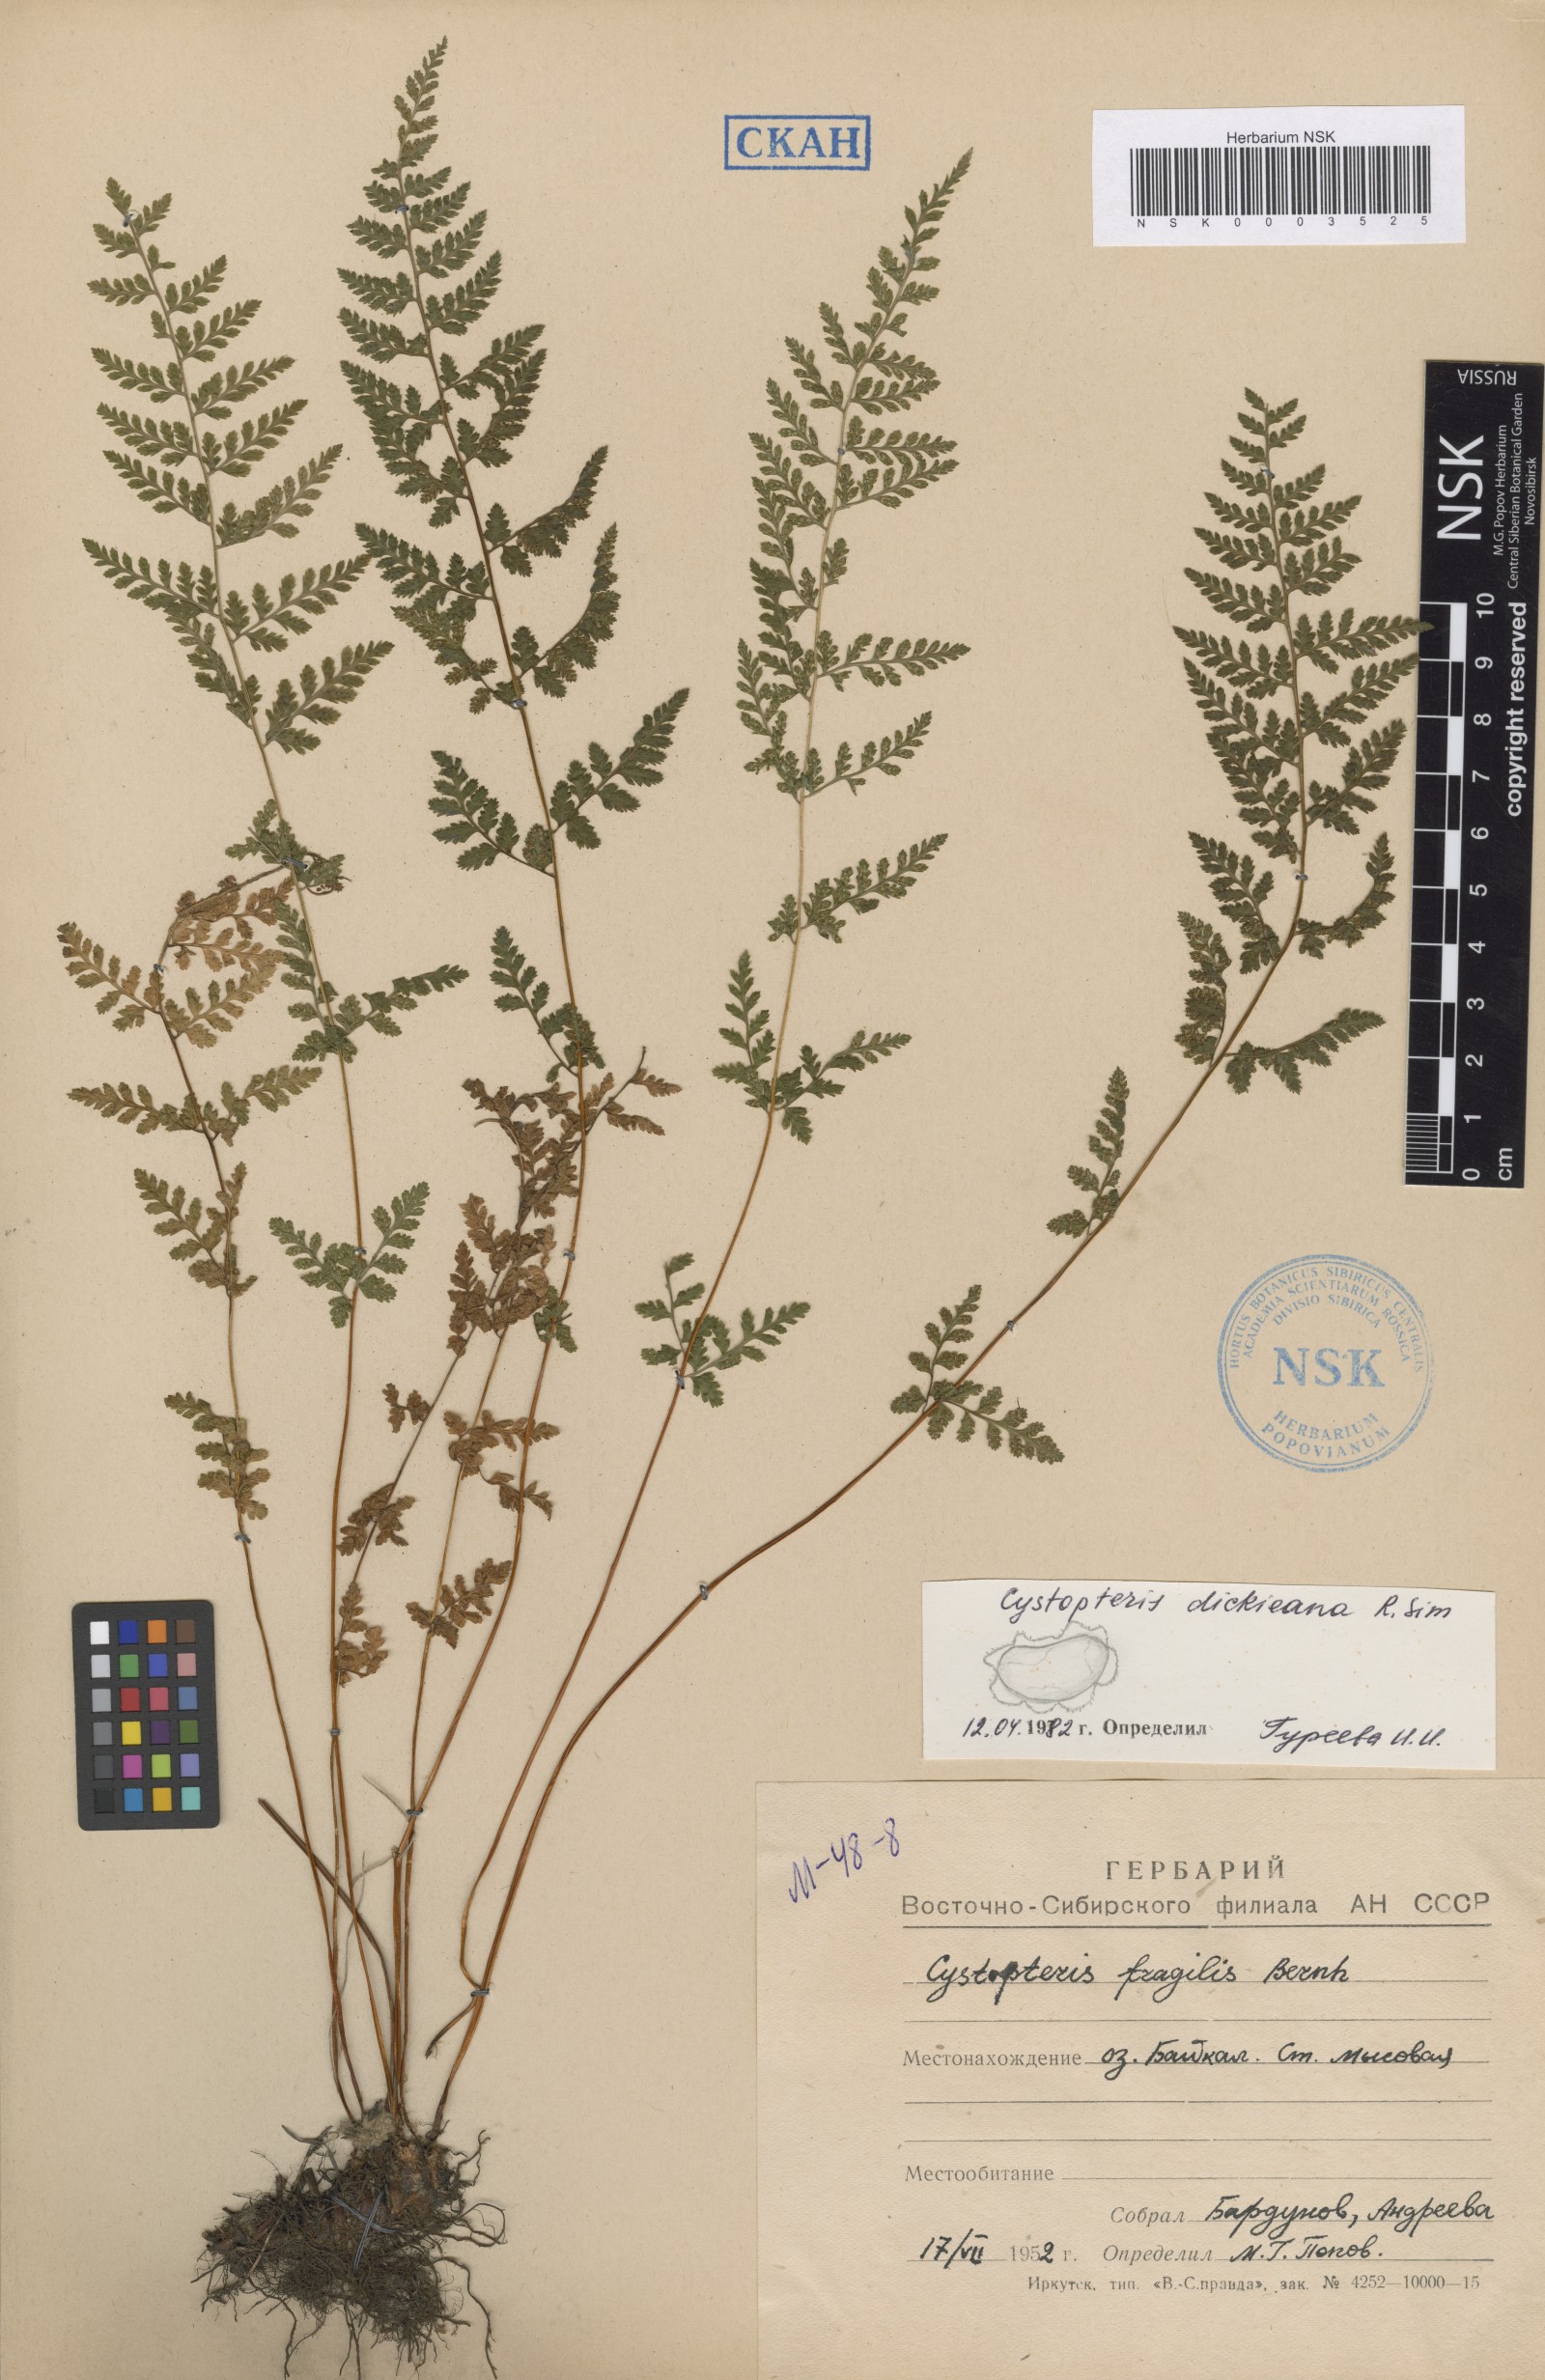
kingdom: Plantae
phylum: Tracheophyta
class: Polypodiopsida
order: Polypodiales
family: Cystopteridaceae
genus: Cystopteris
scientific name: Cystopteris dickieana
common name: Dickie's bladder-fern
